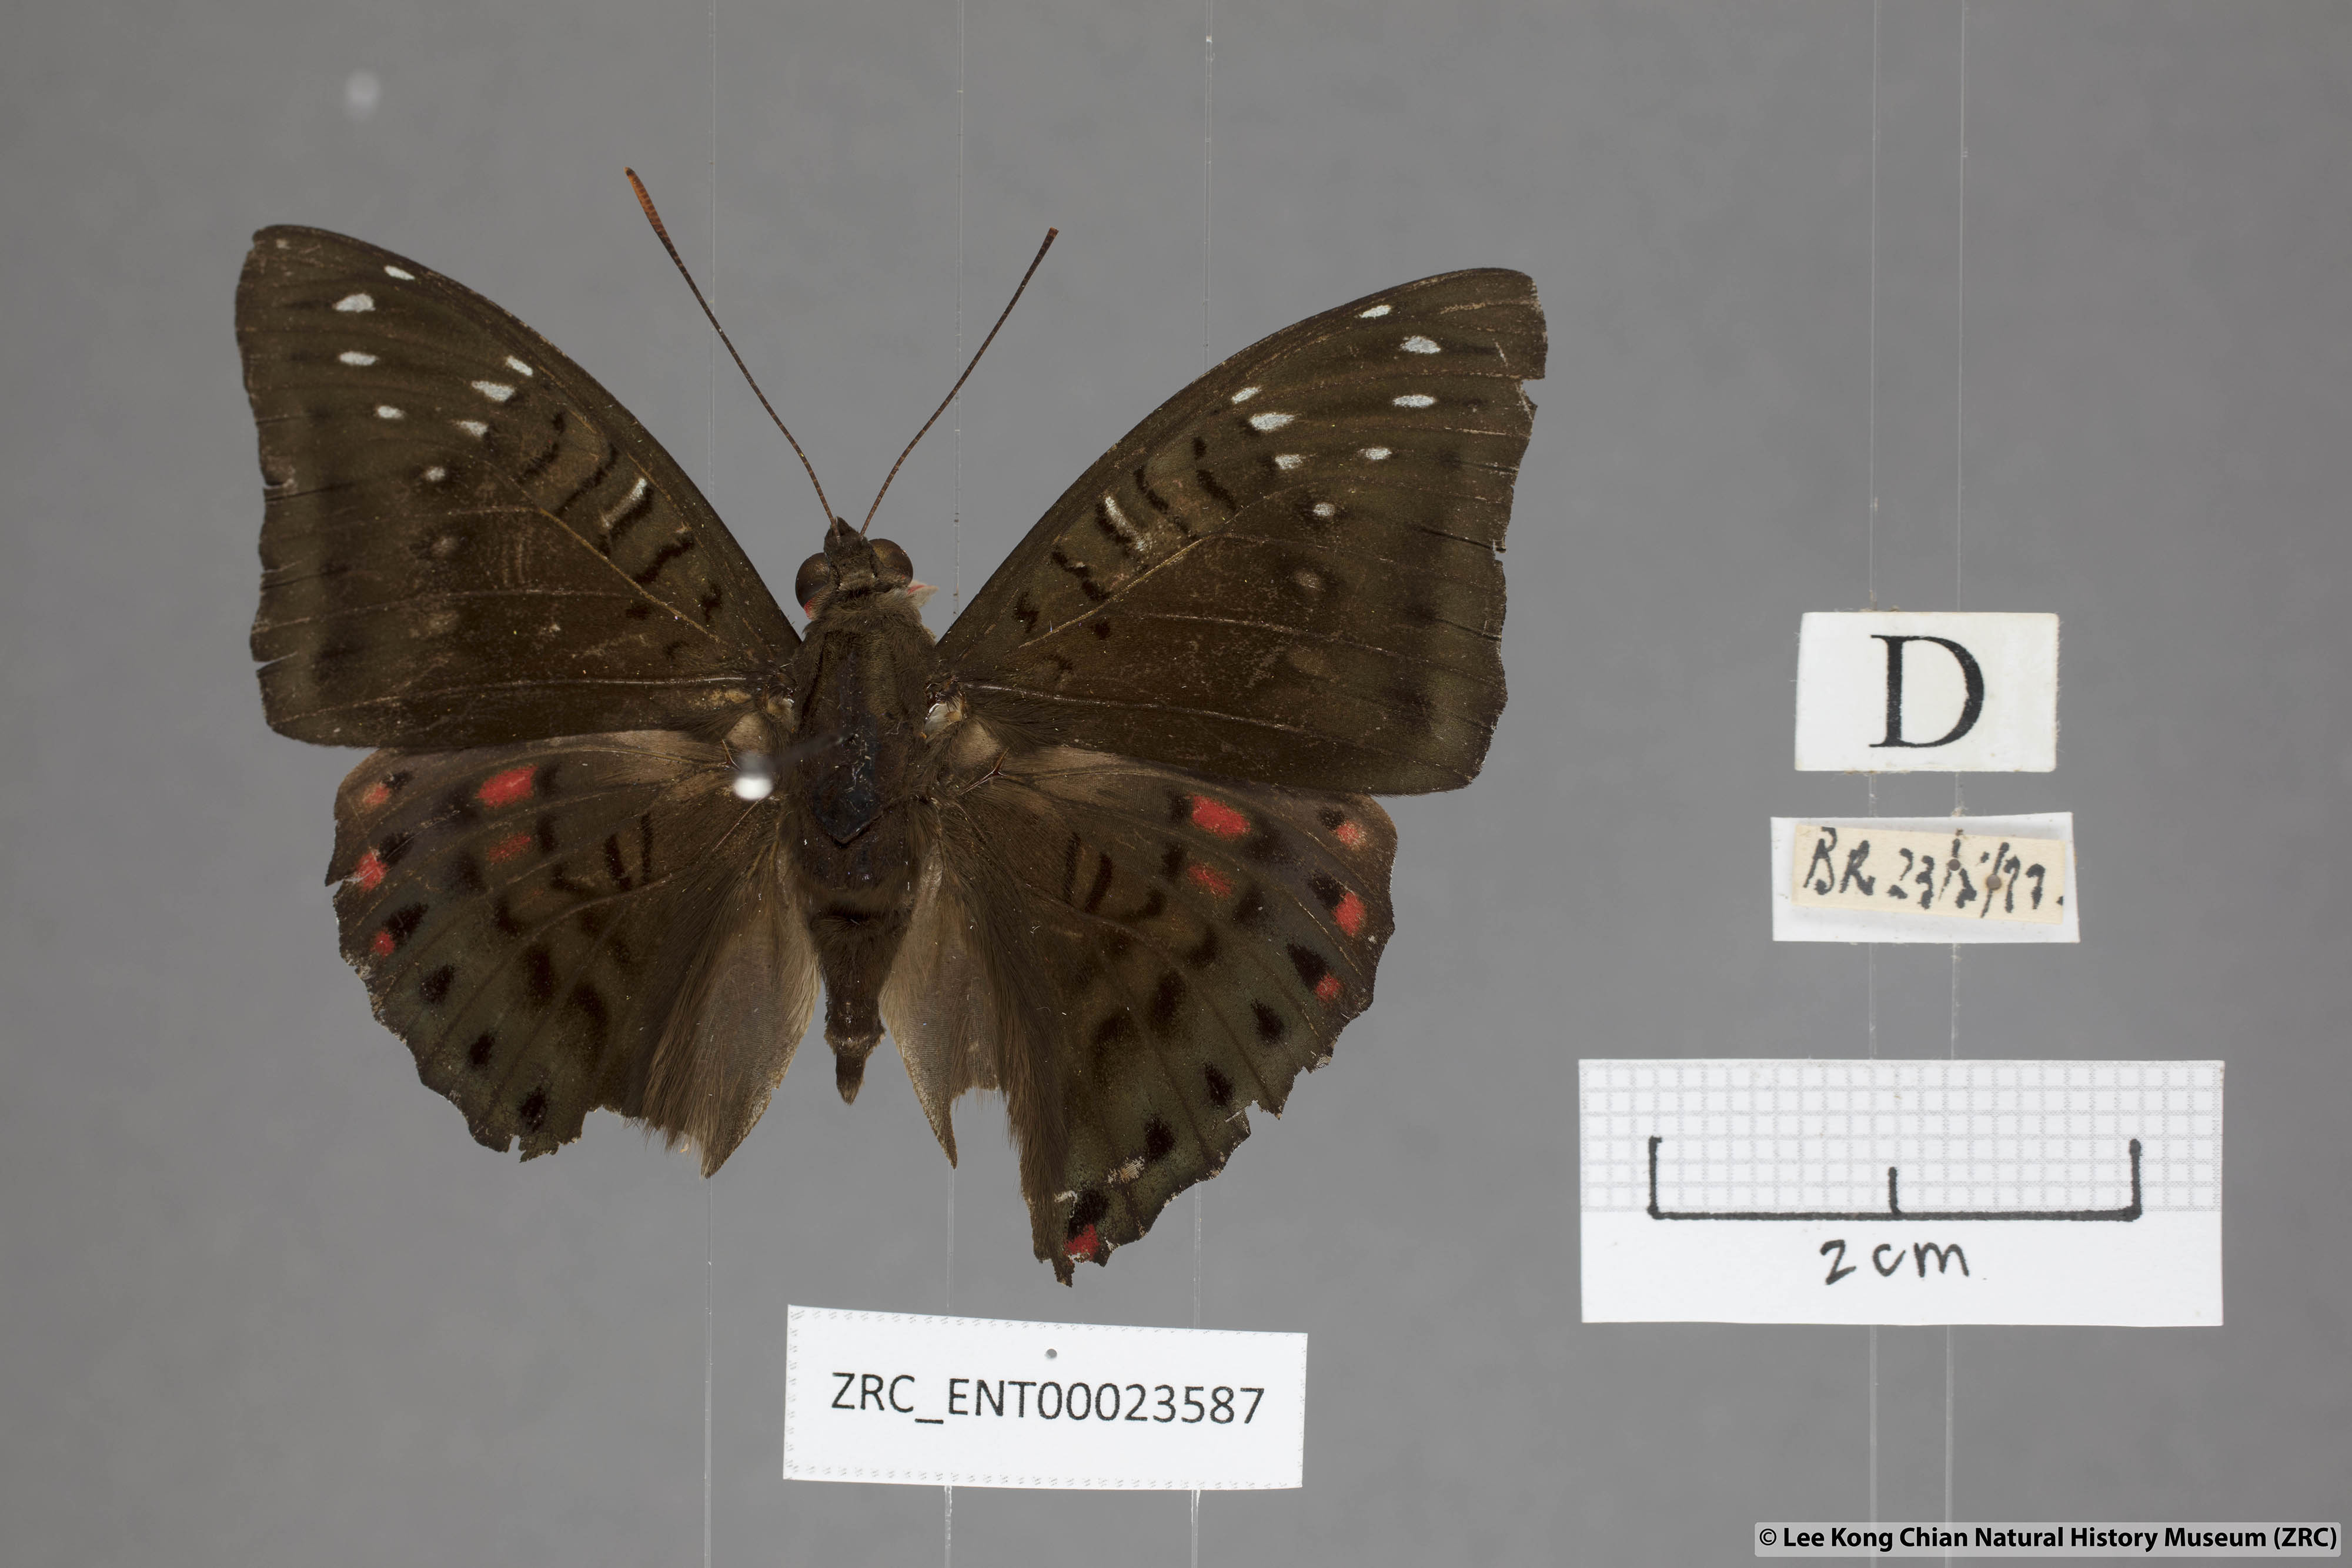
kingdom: Animalia
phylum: Arthropoda
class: Insecta
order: Lepidoptera
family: Nymphalidae
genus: Euthalia
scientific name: Euthalia adonia
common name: Green baron
